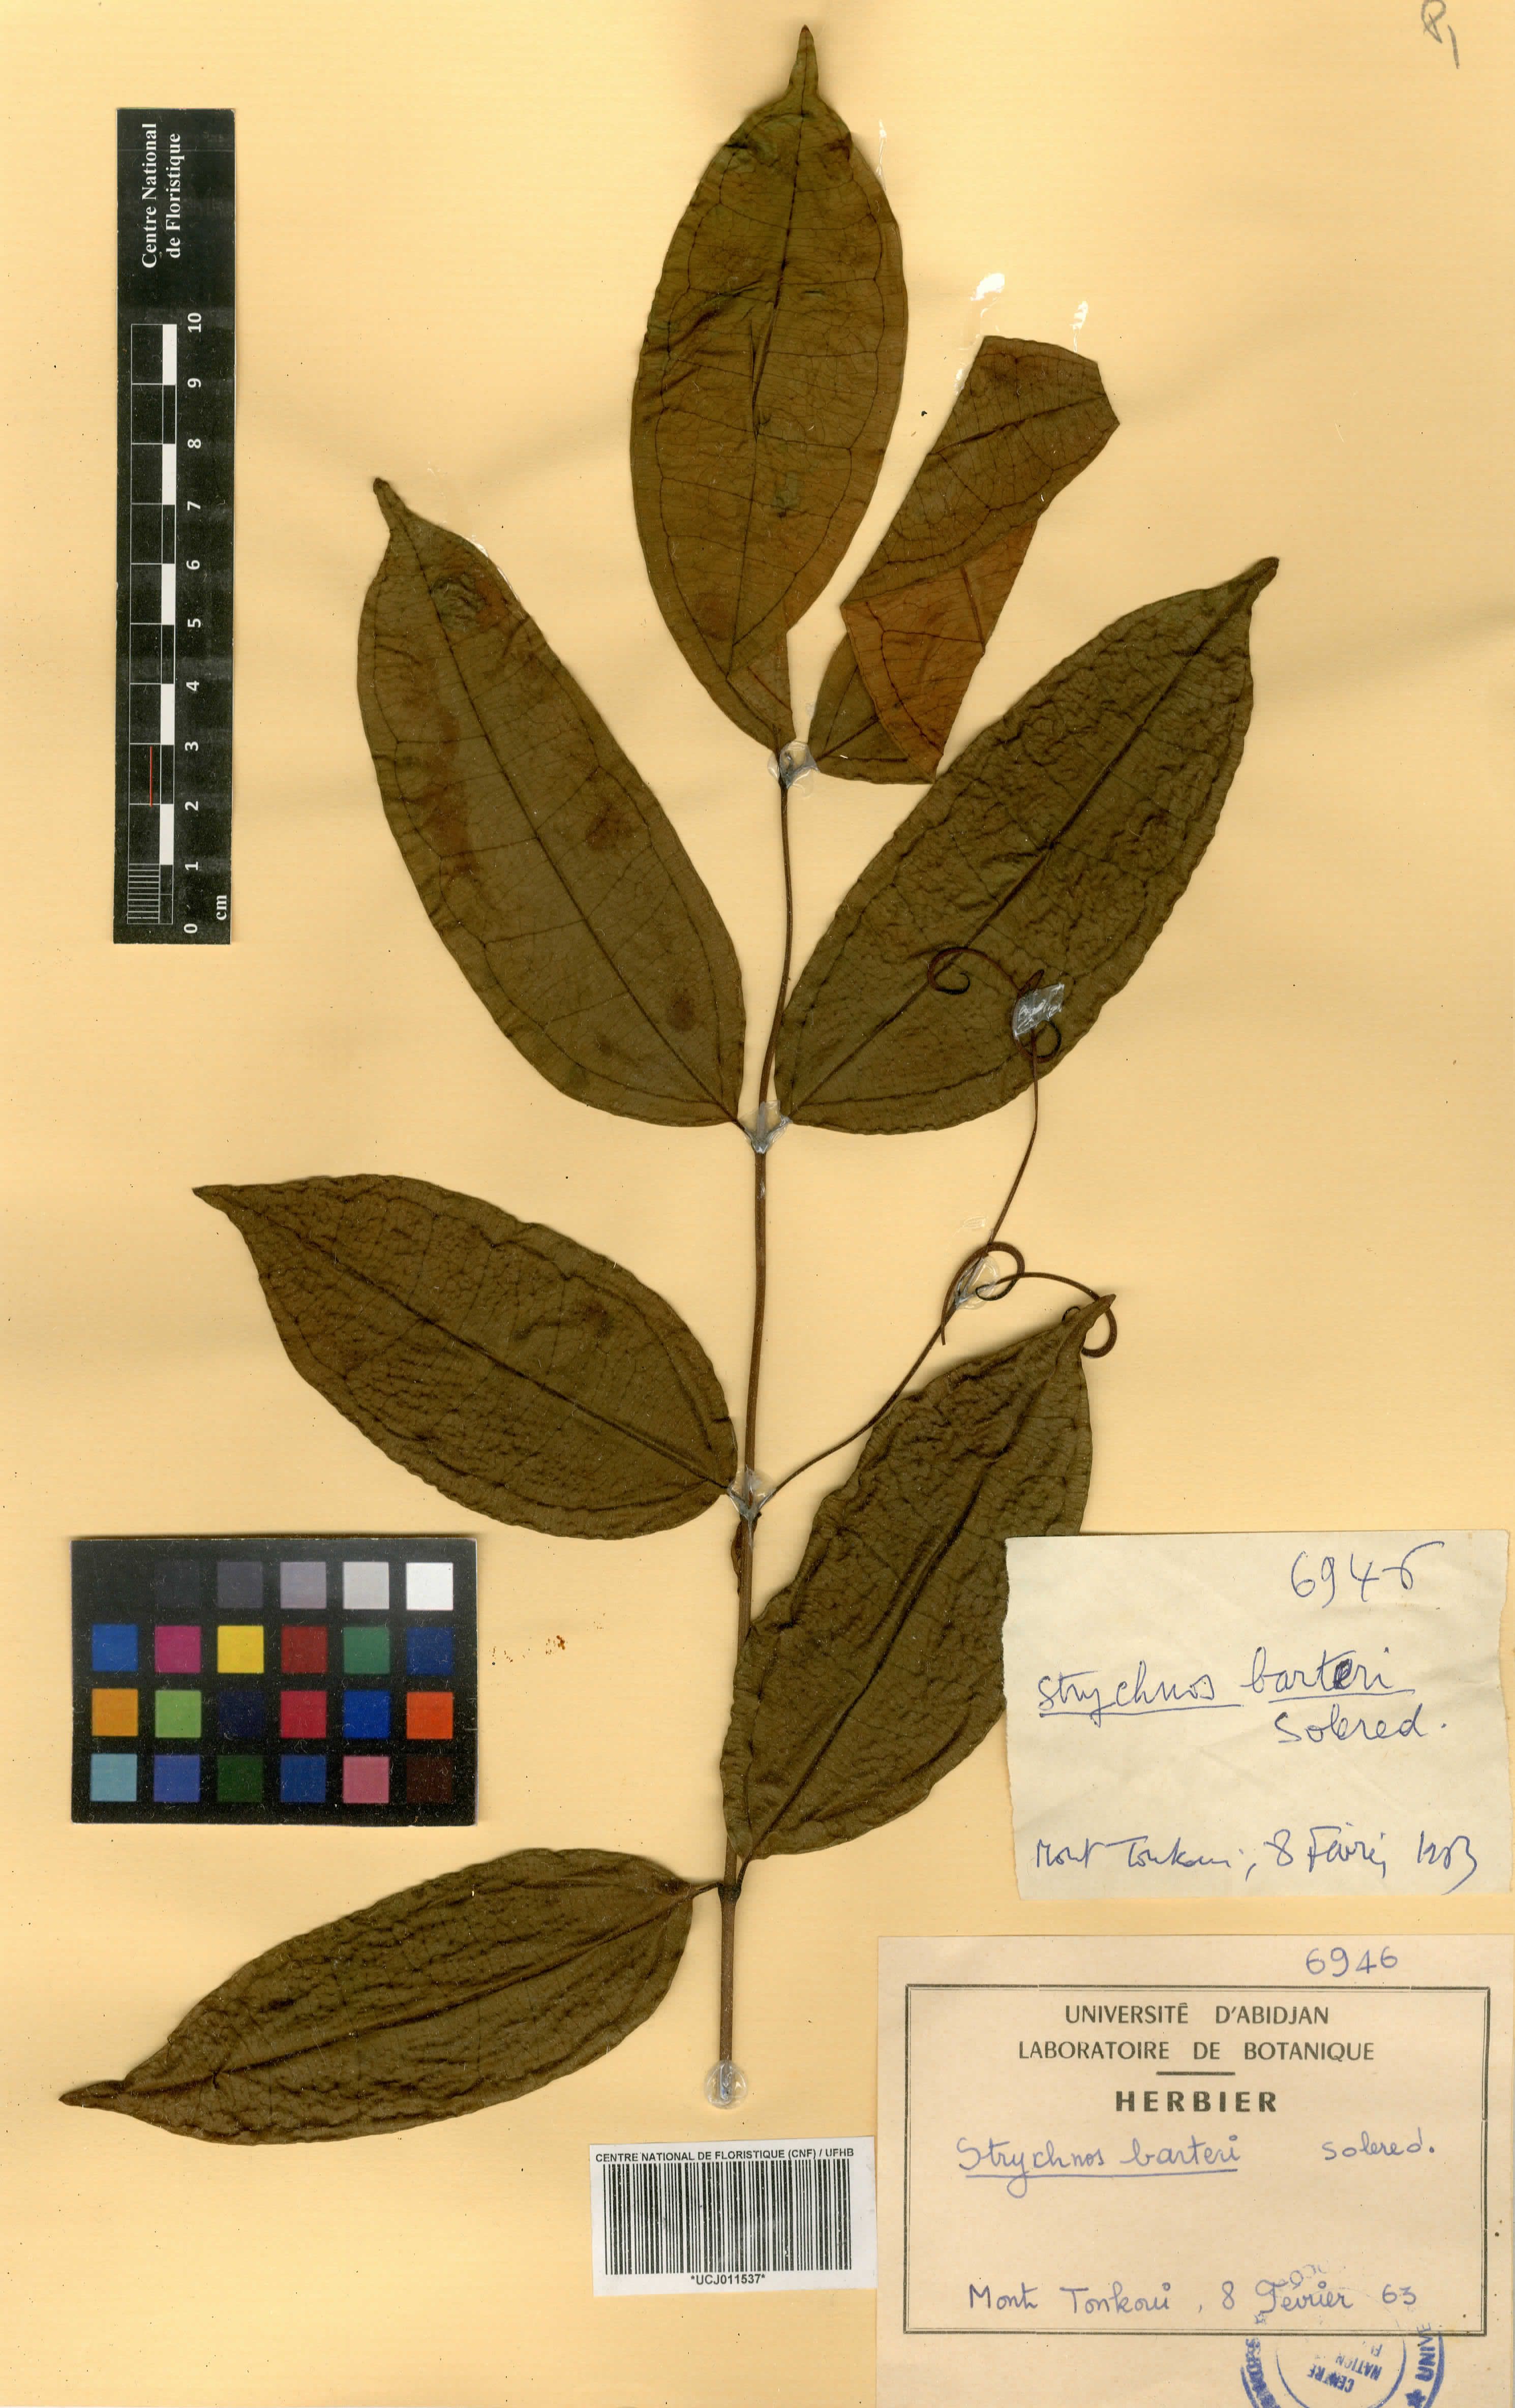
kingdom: Plantae
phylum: Tracheophyta
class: Magnoliopsida
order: Gentianales
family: Loganiaceae
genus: Strychnos
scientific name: Strychnos barteri
